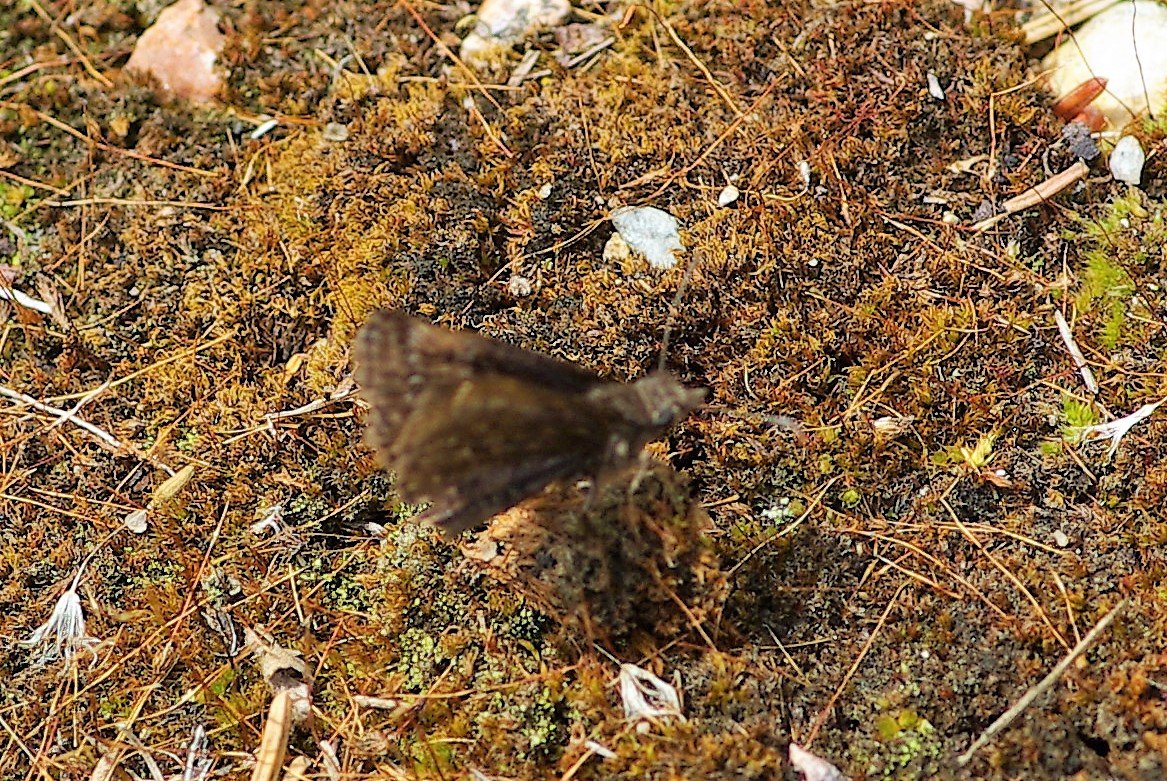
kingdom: Animalia
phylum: Arthropoda
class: Insecta
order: Lepidoptera
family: Hesperiidae
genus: Gesta
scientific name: Gesta
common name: Juvenal's Duskywing
